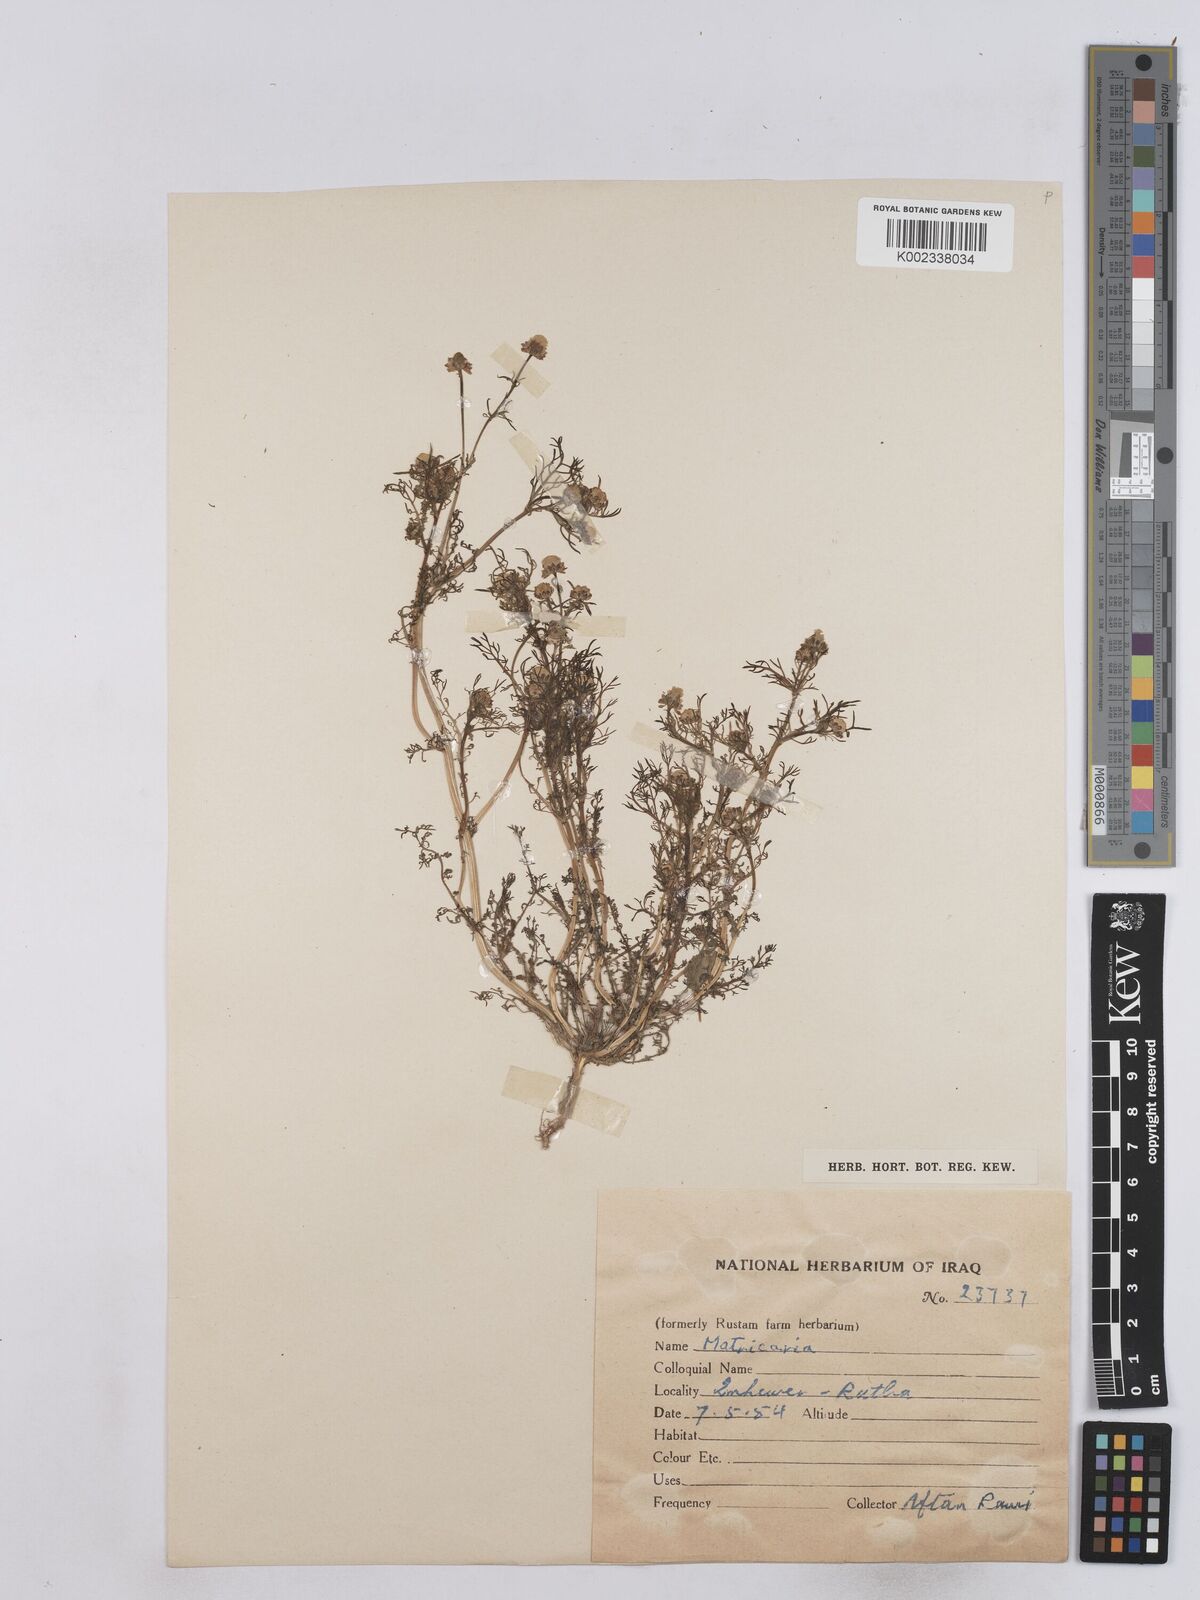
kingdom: Plantae
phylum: Tracheophyta
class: Magnoliopsida
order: Asterales
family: Asteraceae
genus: Matricaria
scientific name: Matricaria aurea
